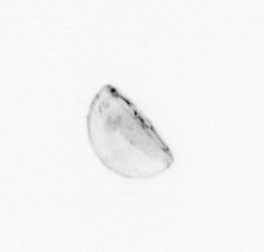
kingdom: Chromista
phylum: Ochrophyta
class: Bacillariophyceae
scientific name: Bacillariophyceae
